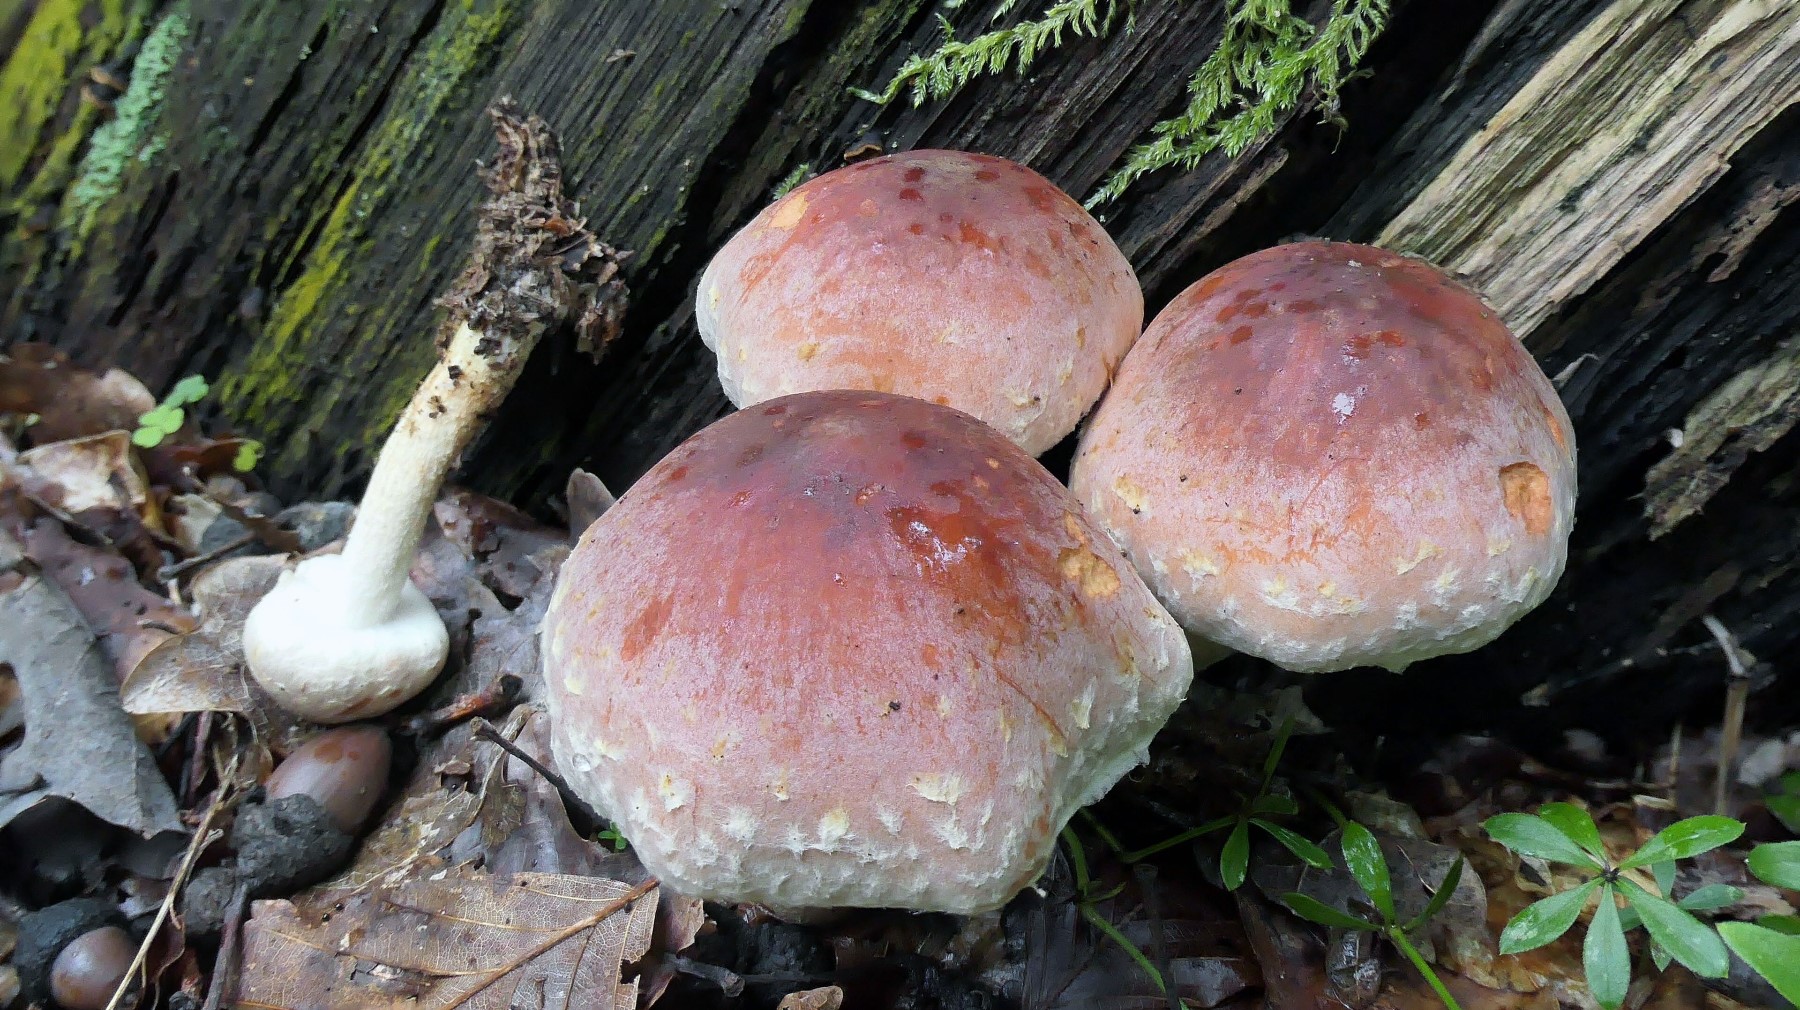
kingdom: Fungi
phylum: Basidiomycota
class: Agaricomycetes
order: Agaricales
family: Strophariaceae
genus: Hypholoma
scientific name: Hypholoma lateritium
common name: teglrød svovlhat
